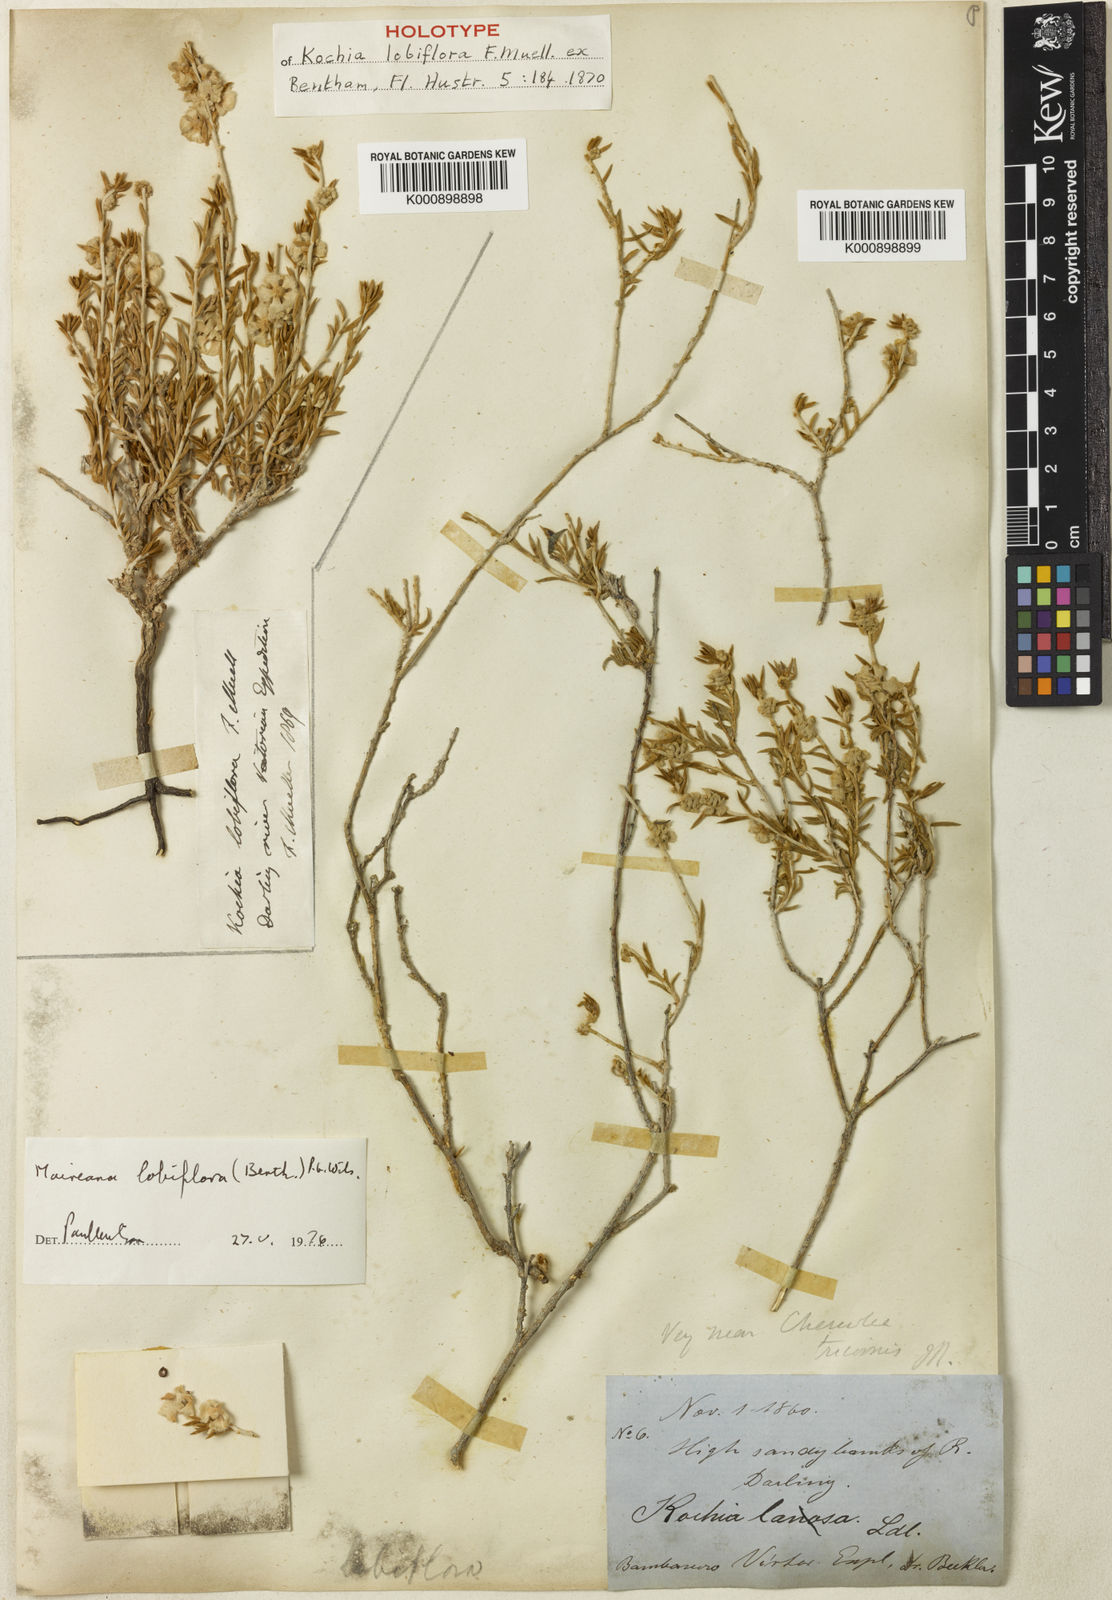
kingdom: Plantae
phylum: Tracheophyta
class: Magnoliopsida
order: Caryophyllales
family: Amaranthaceae
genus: Maireana
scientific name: Maireana lobiflora
